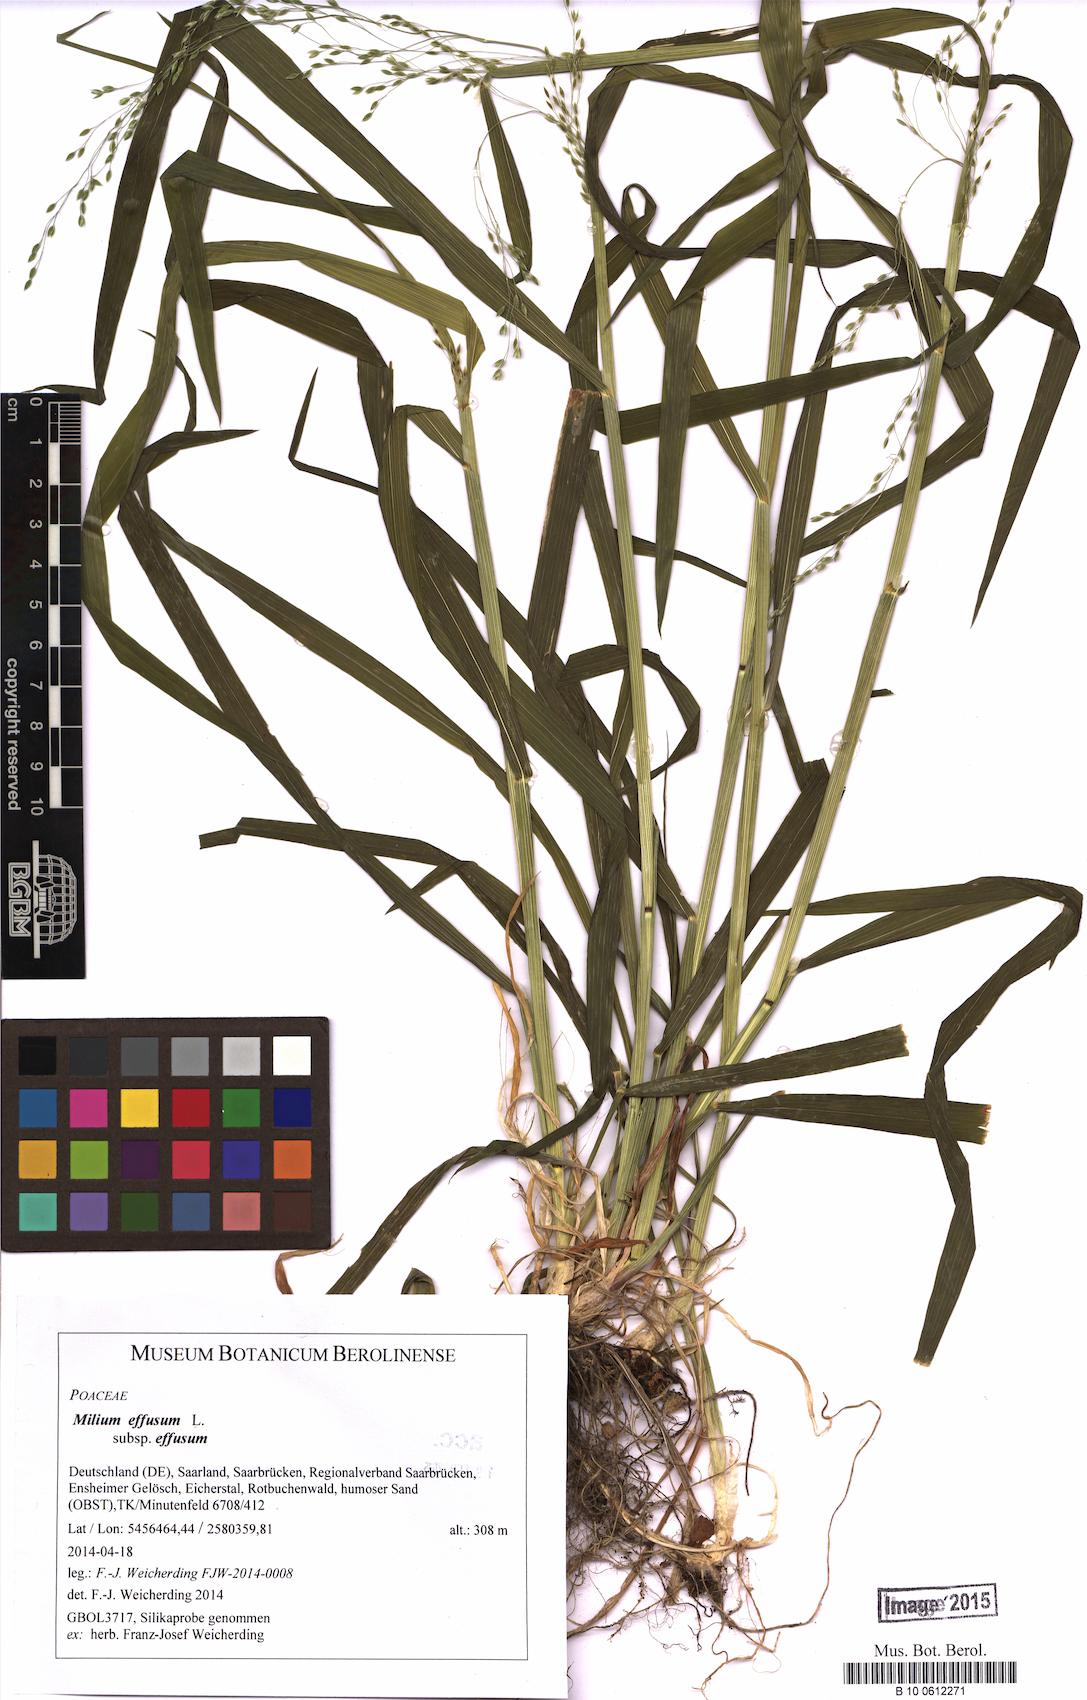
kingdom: Plantae
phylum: Tracheophyta
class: Liliopsida
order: Poales
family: Poaceae
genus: Milium
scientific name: Milium effusum
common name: Wood millet
